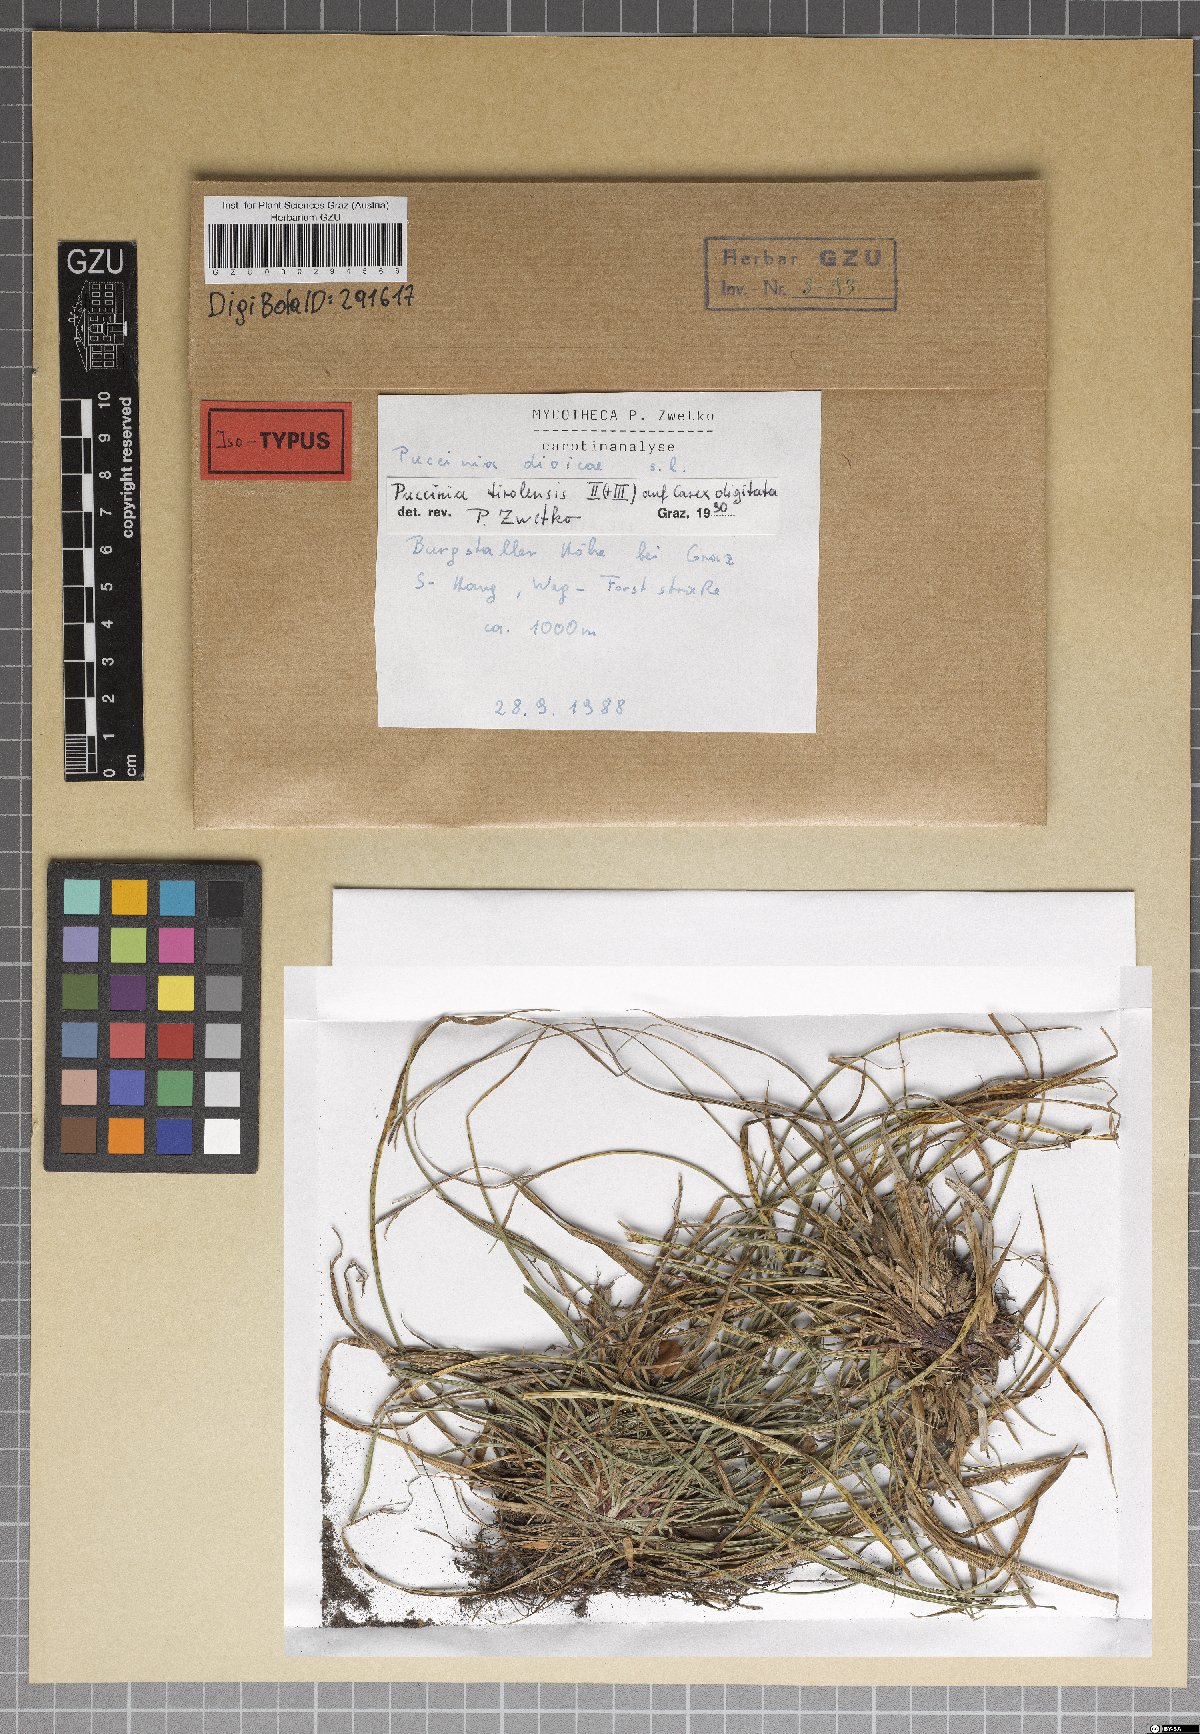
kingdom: Fungi
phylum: Basidiomycota
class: Pucciniomycetes
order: Pucciniales
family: Pucciniaceae
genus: Puccinia
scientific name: Puccinia tirolensis
